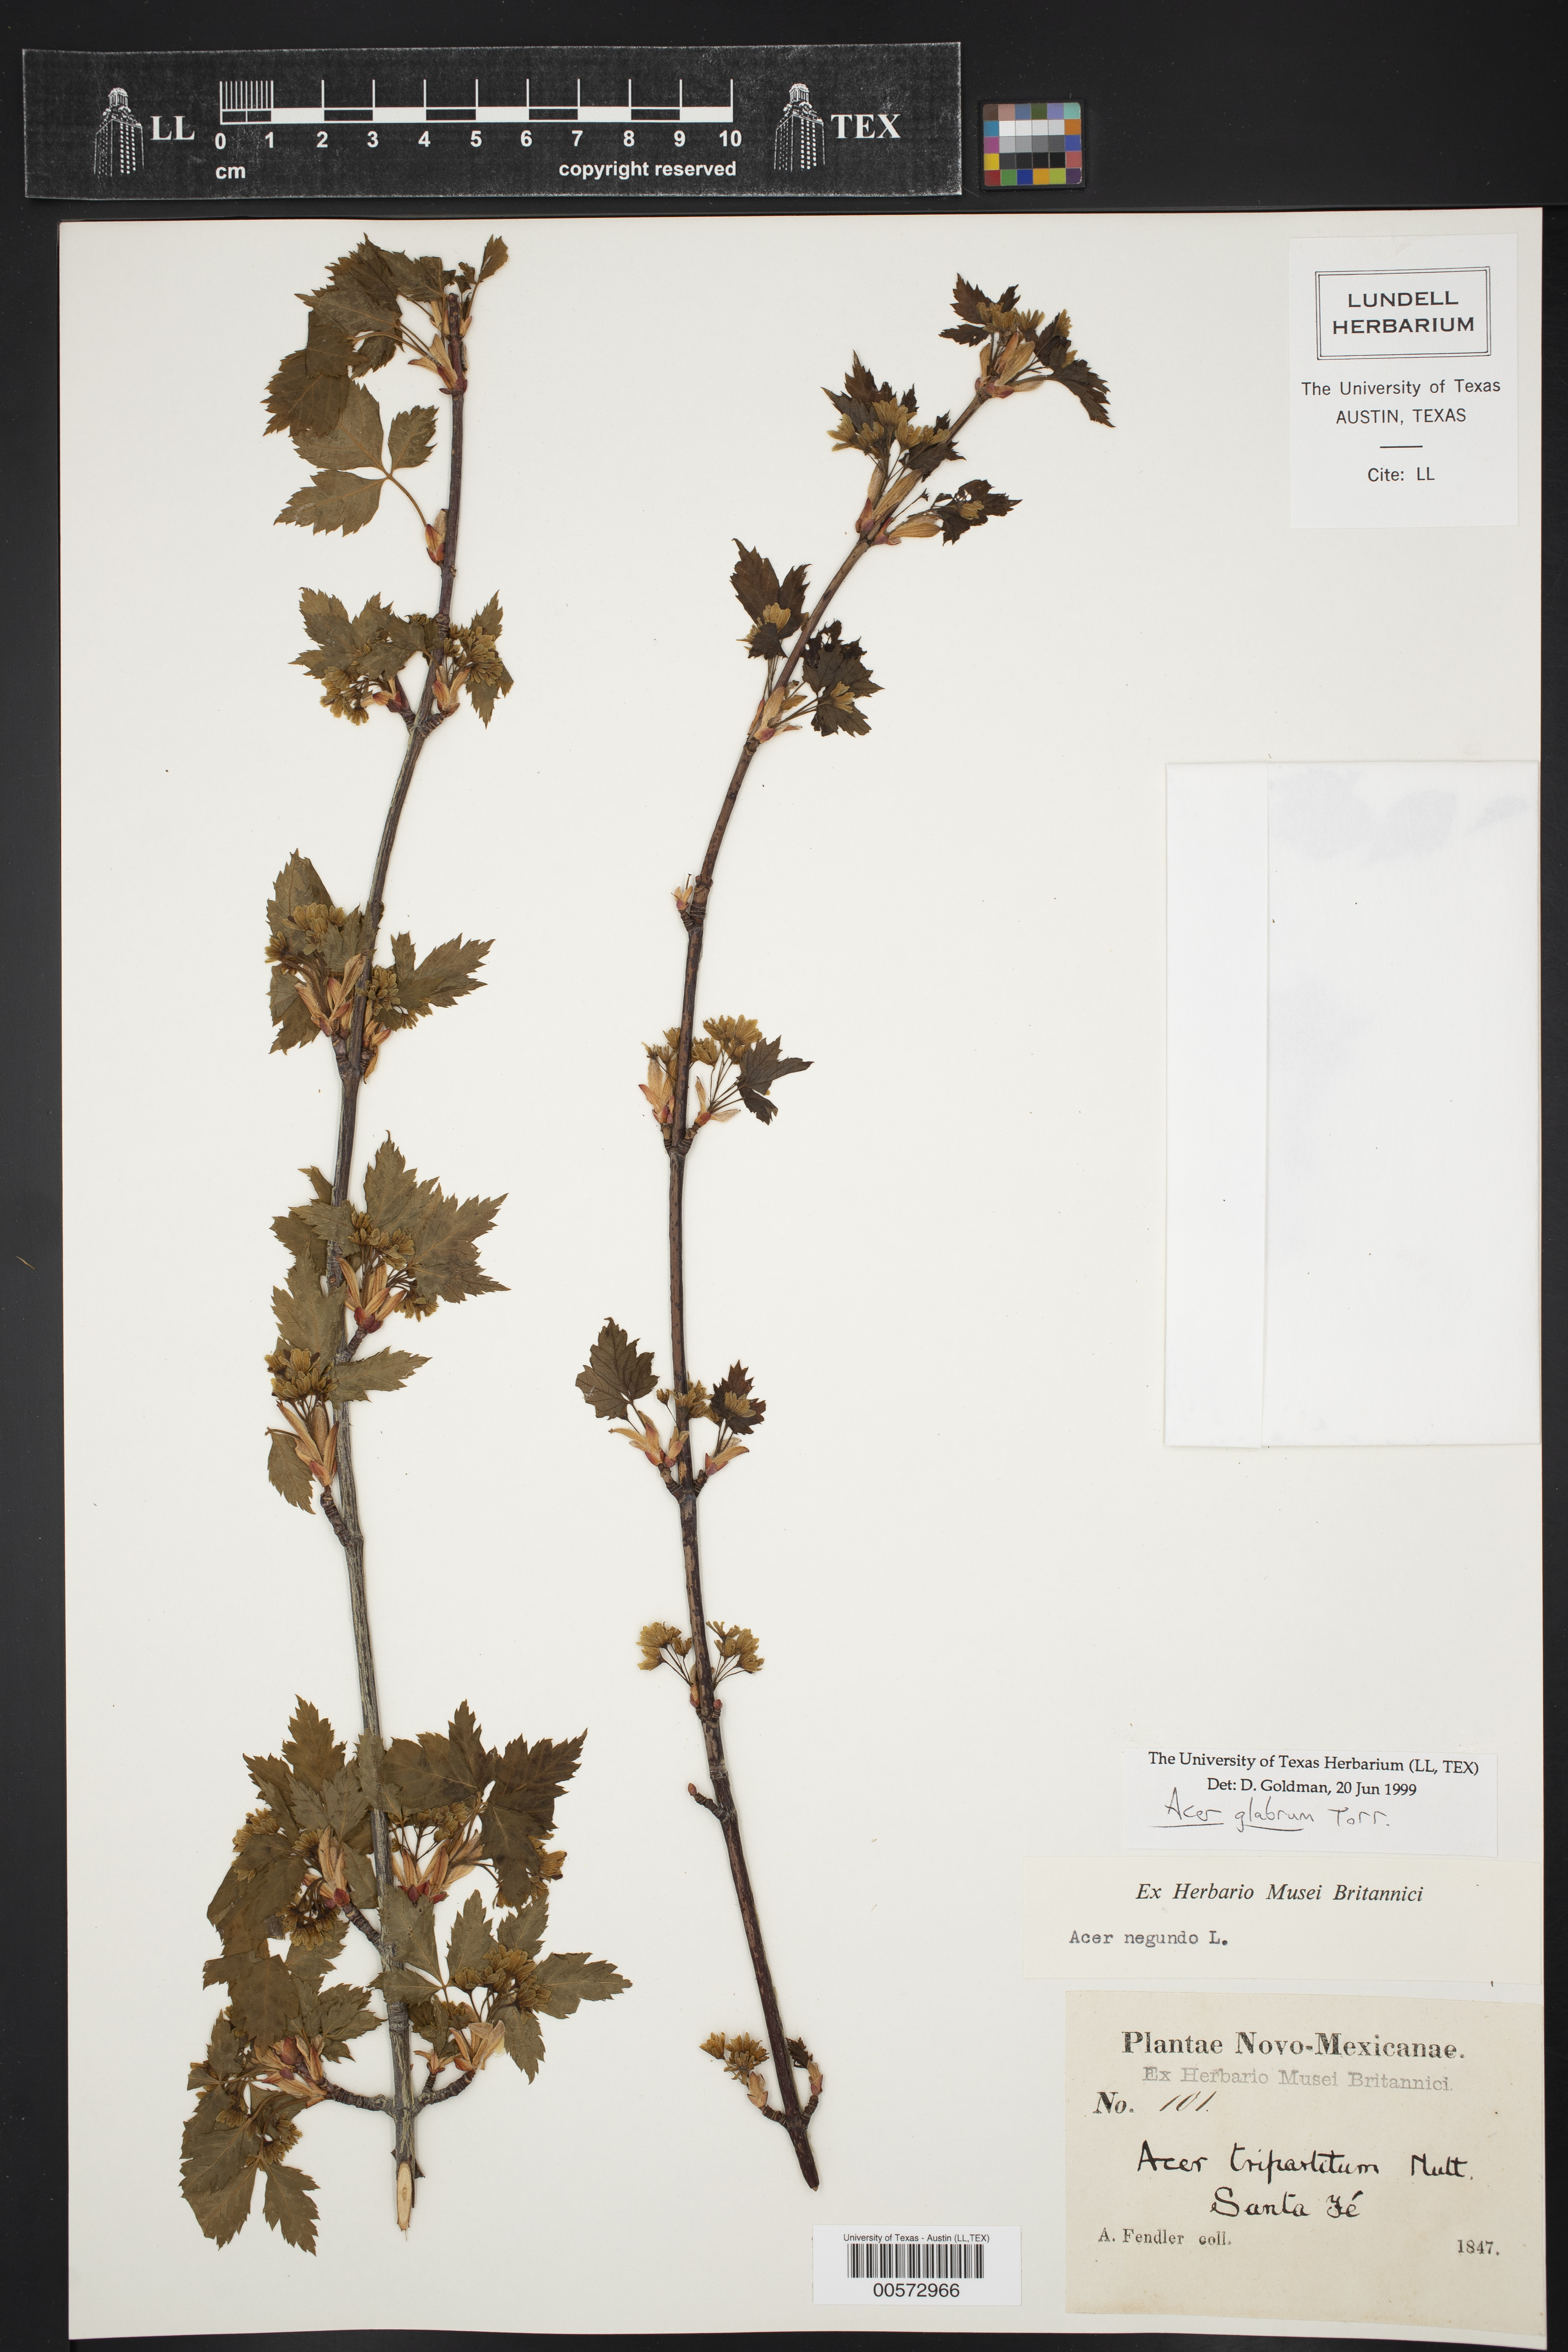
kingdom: Plantae
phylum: Tracheophyta
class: Magnoliopsida
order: Sapindales
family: Sapindaceae
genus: Acer
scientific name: Acer glabrum
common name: Rocky mountain maple
